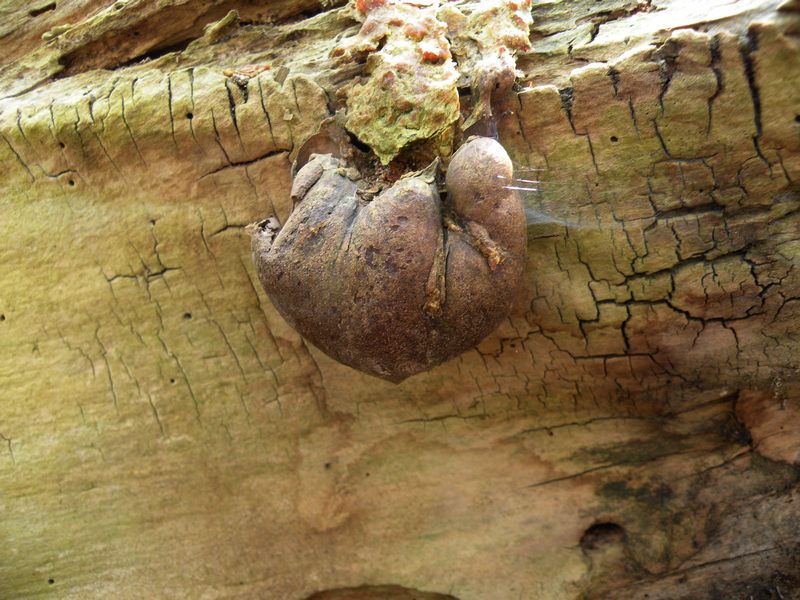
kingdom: Protozoa
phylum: Mycetozoa
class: Myxomycetes
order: Cribrariales
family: Tubiferaceae
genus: Lycogala
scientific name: Lycogala flavofuscum
